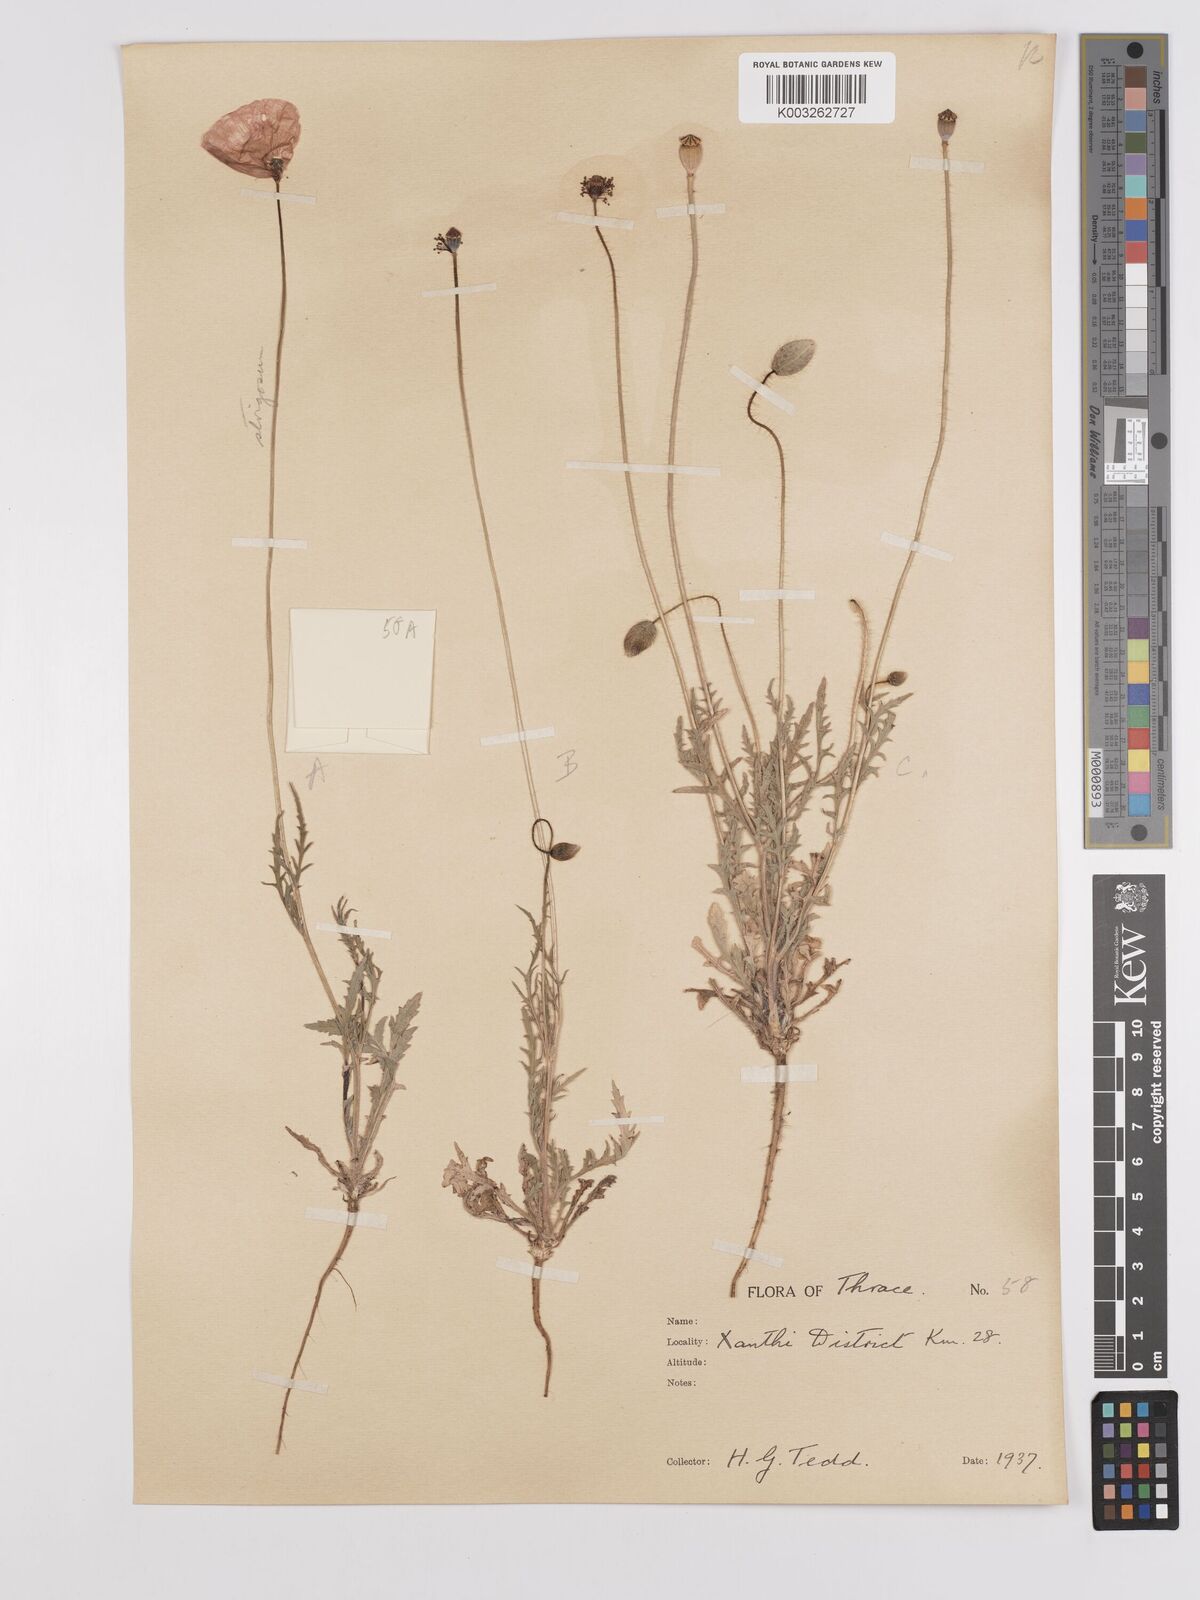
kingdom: Plantae
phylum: Tracheophyta
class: Magnoliopsida
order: Ranunculales
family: Papaveraceae
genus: Papaver
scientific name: Papaver
